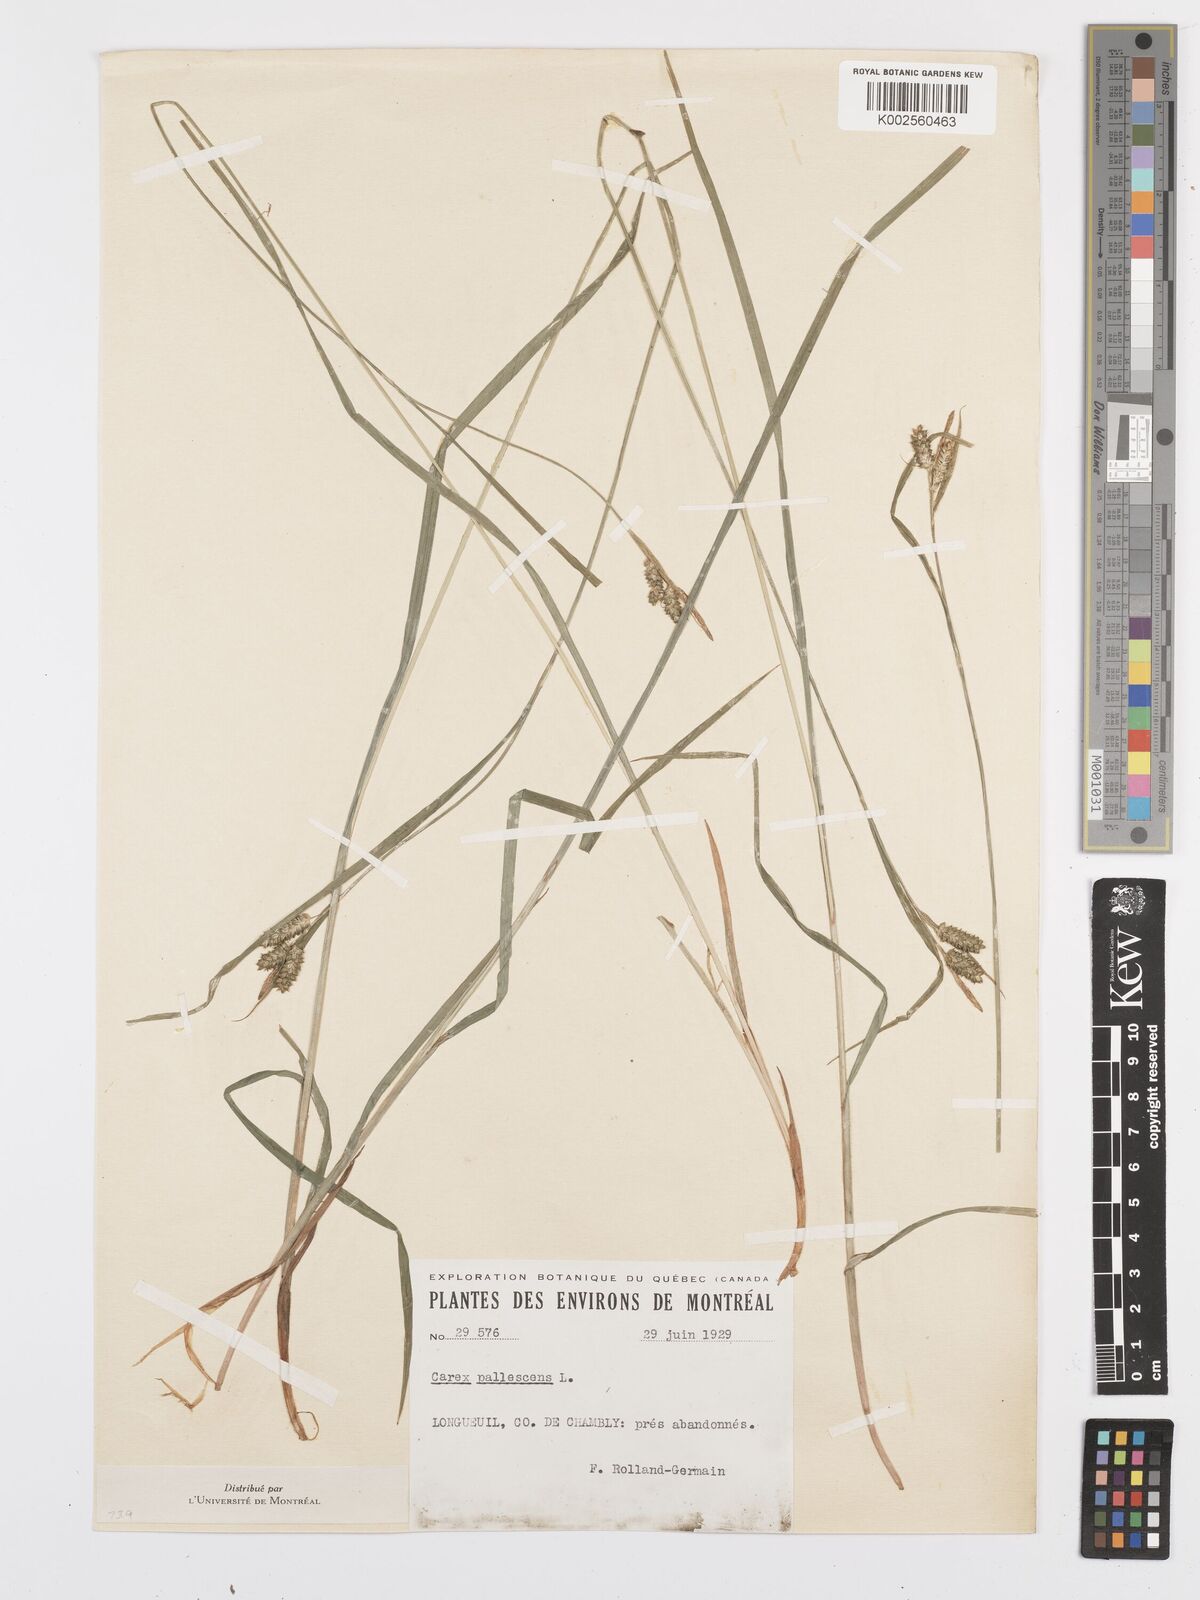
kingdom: Plantae
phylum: Tracheophyta
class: Liliopsida
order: Poales
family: Cyperaceae
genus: Carex
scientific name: Carex pallescens
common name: Pale sedge
